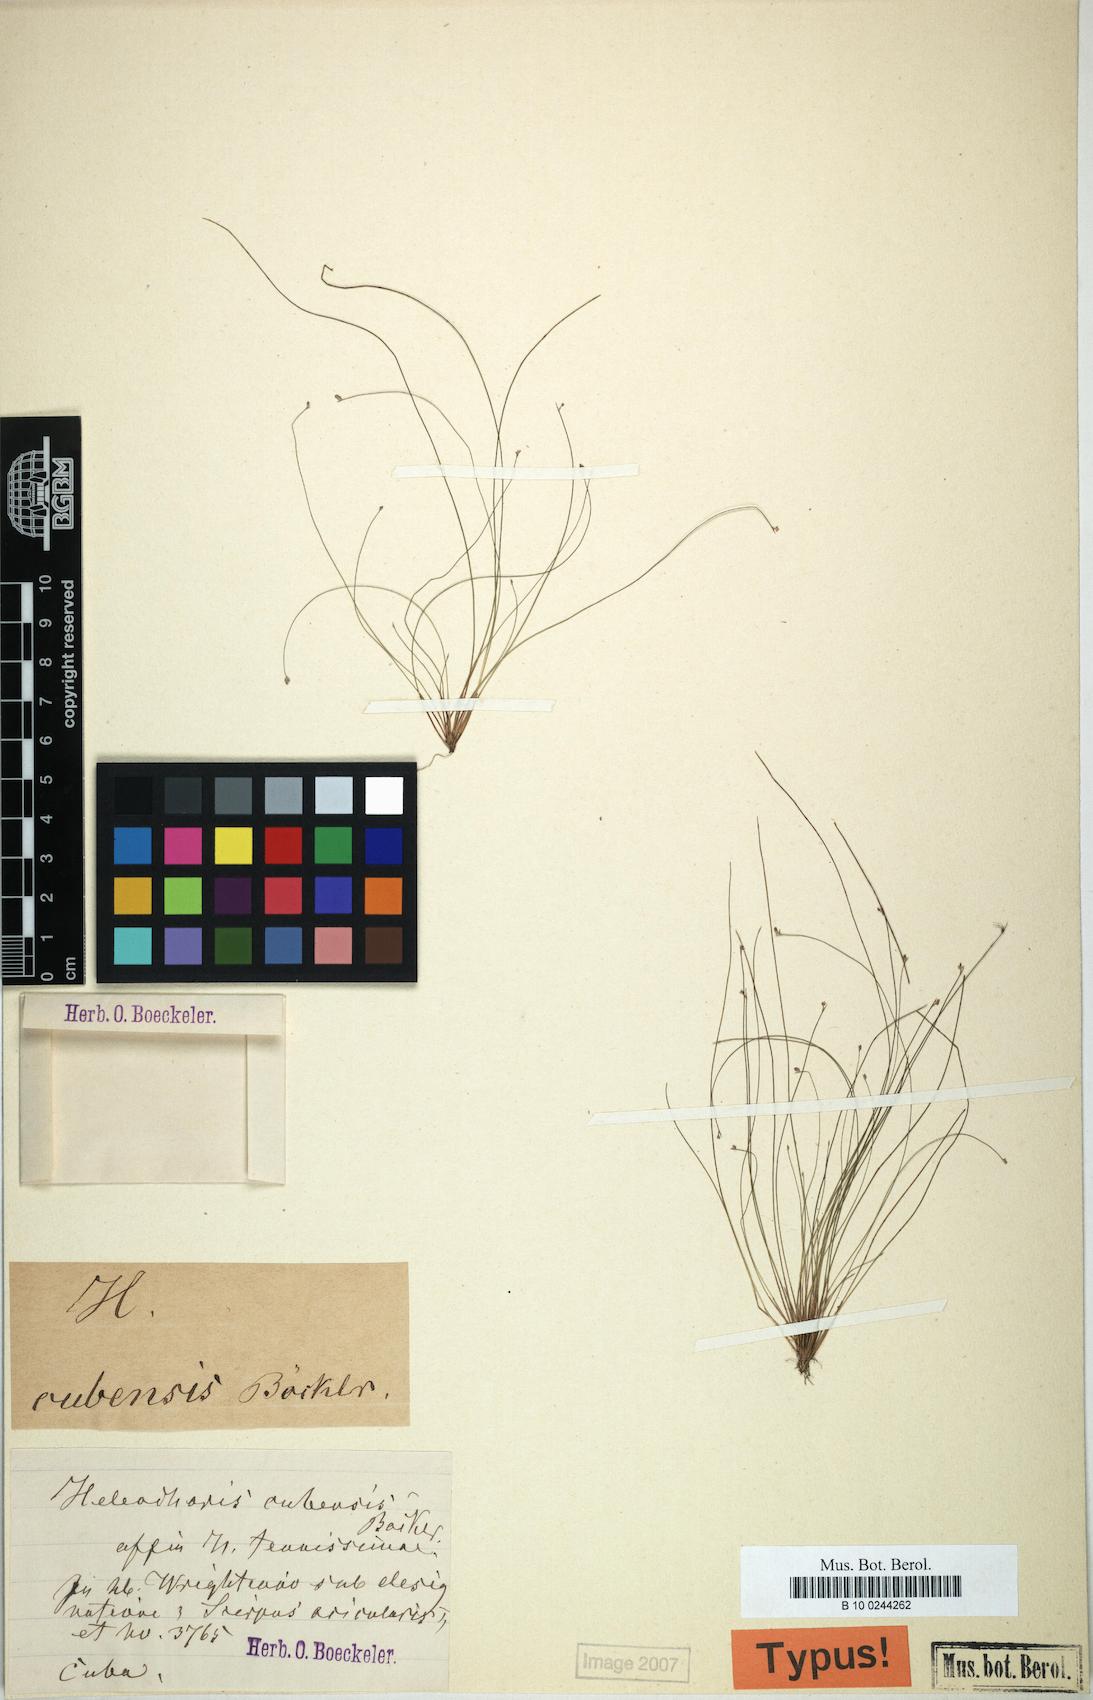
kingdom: Plantae
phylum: Tracheophyta
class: Liliopsida
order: Poales
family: Cyperaceae
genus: Eleocharis
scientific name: Eleocharis microcarpa
